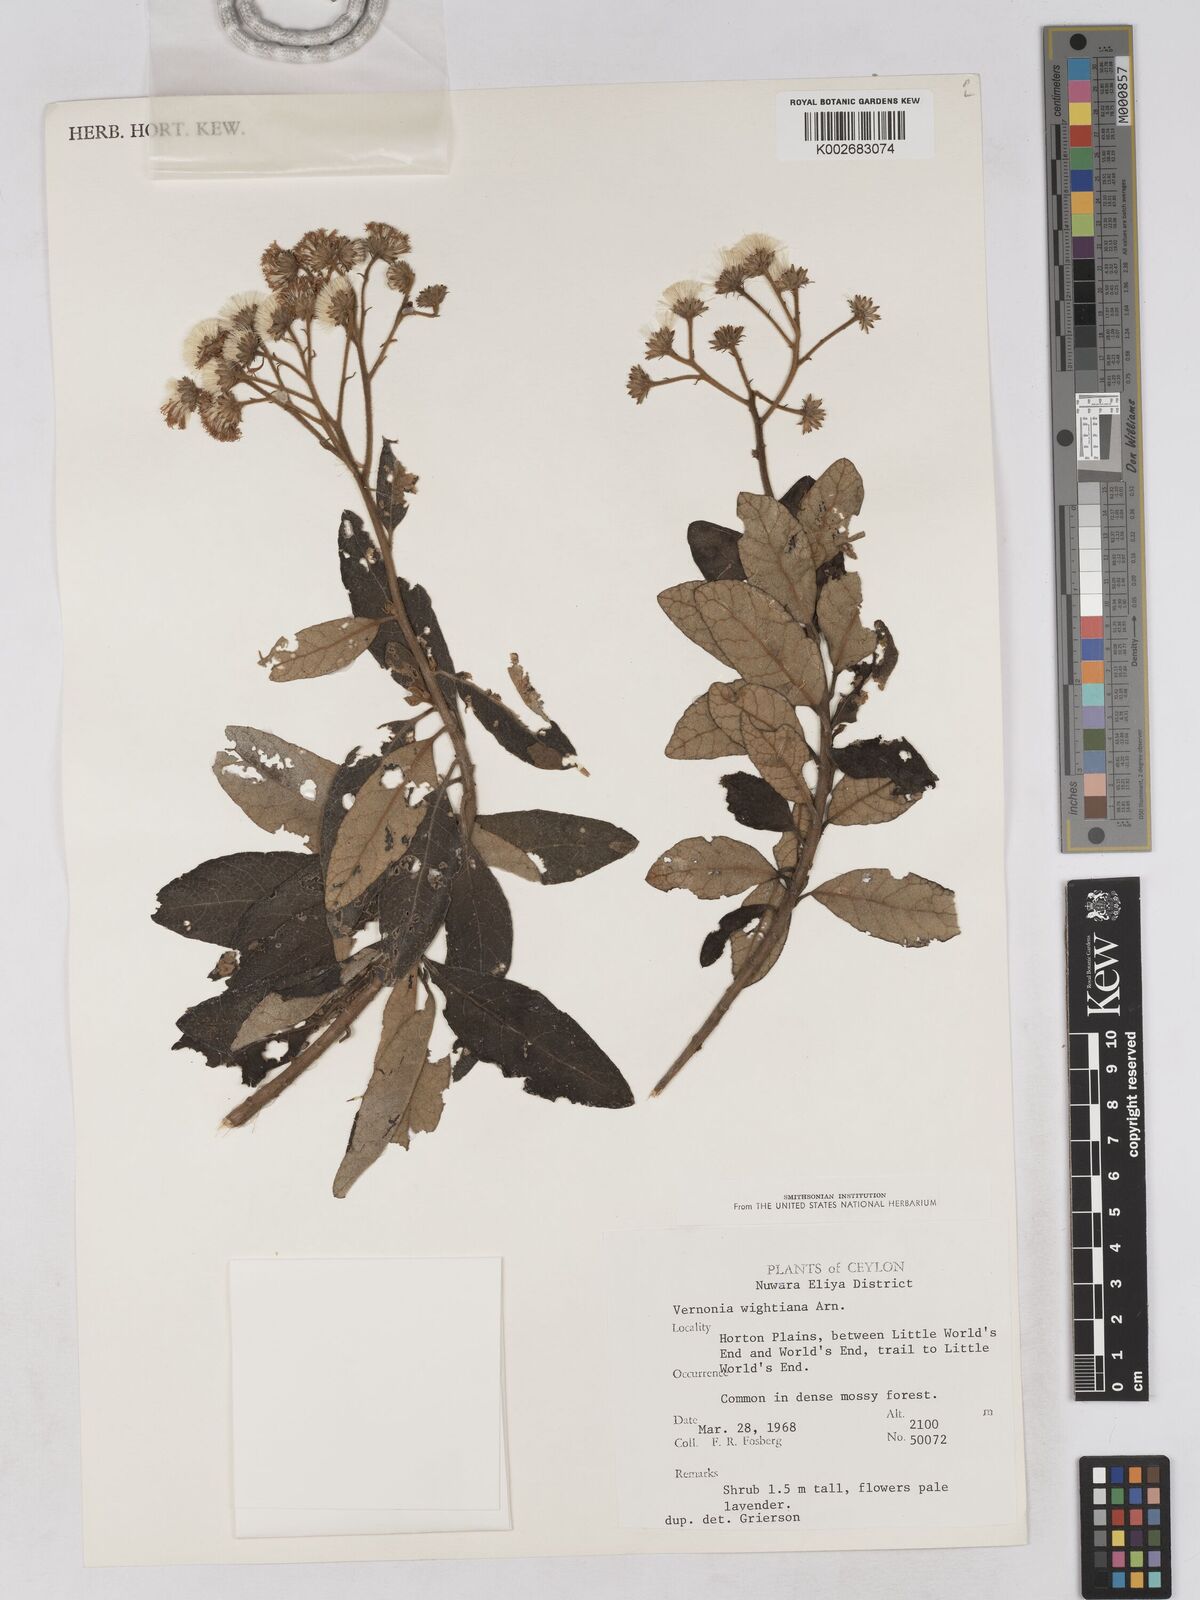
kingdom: Plantae
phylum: Tracheophyta
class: Magnoliopsida
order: Asterales
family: Asteraceae
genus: Uniyala
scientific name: Uniyala wightiana
